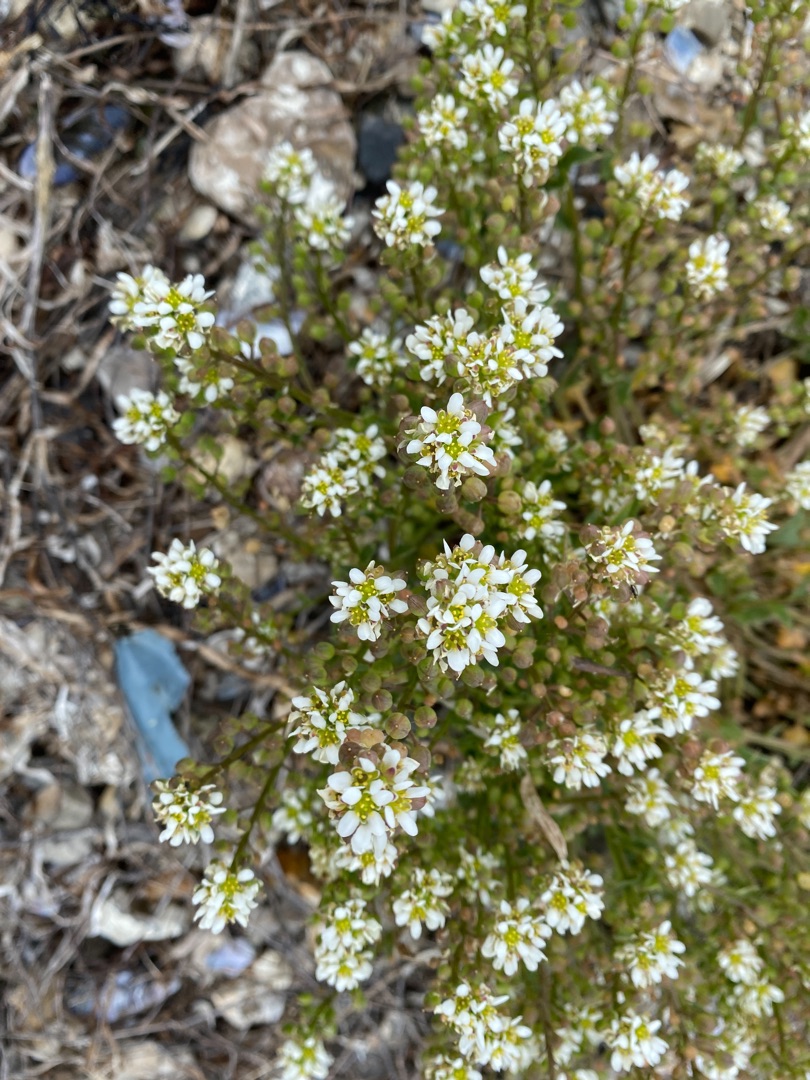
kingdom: Plantae
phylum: Tracheophyta
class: Magnoliopsida
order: Brassicales
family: Brassicaceae
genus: Cochlearia
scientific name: Cochlearia officinalis
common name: Læge-kokleare (underart)
